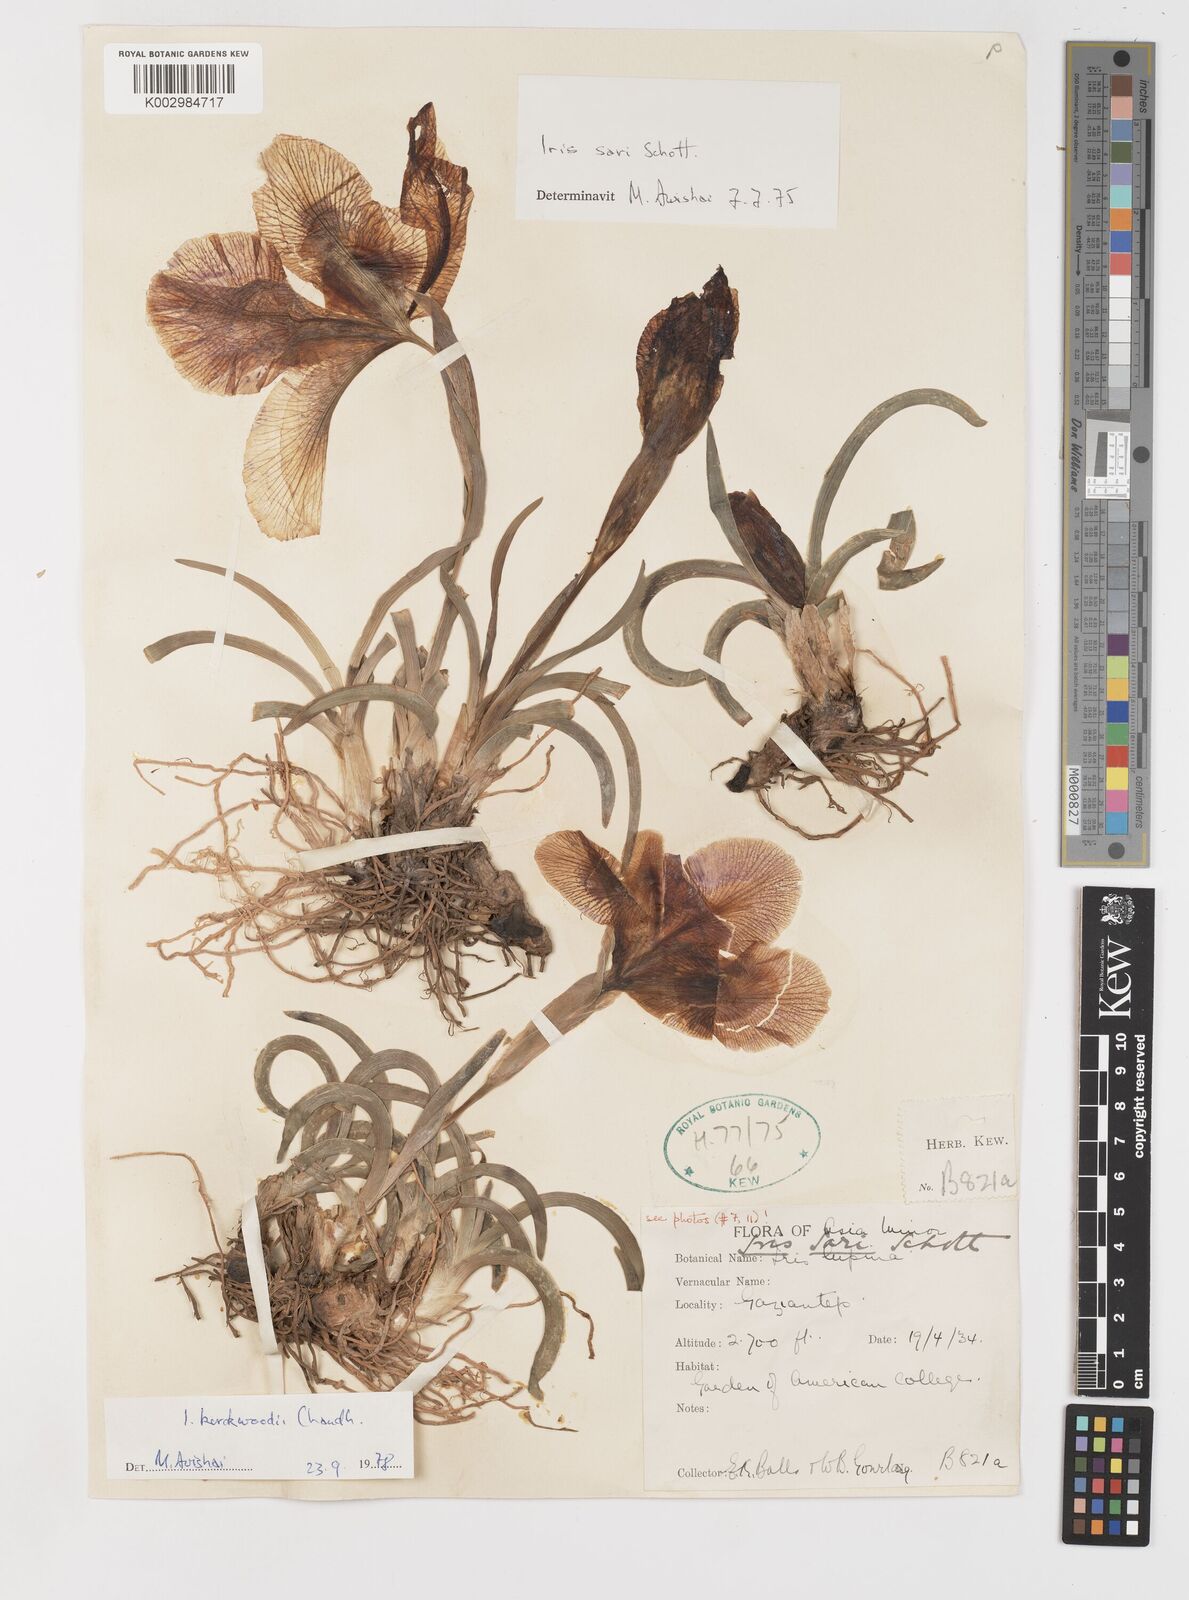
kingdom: Plantae
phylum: Tracheophyta
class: Liliopsida
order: Asparagales
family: Iridaceae
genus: Iris
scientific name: Iris sari
